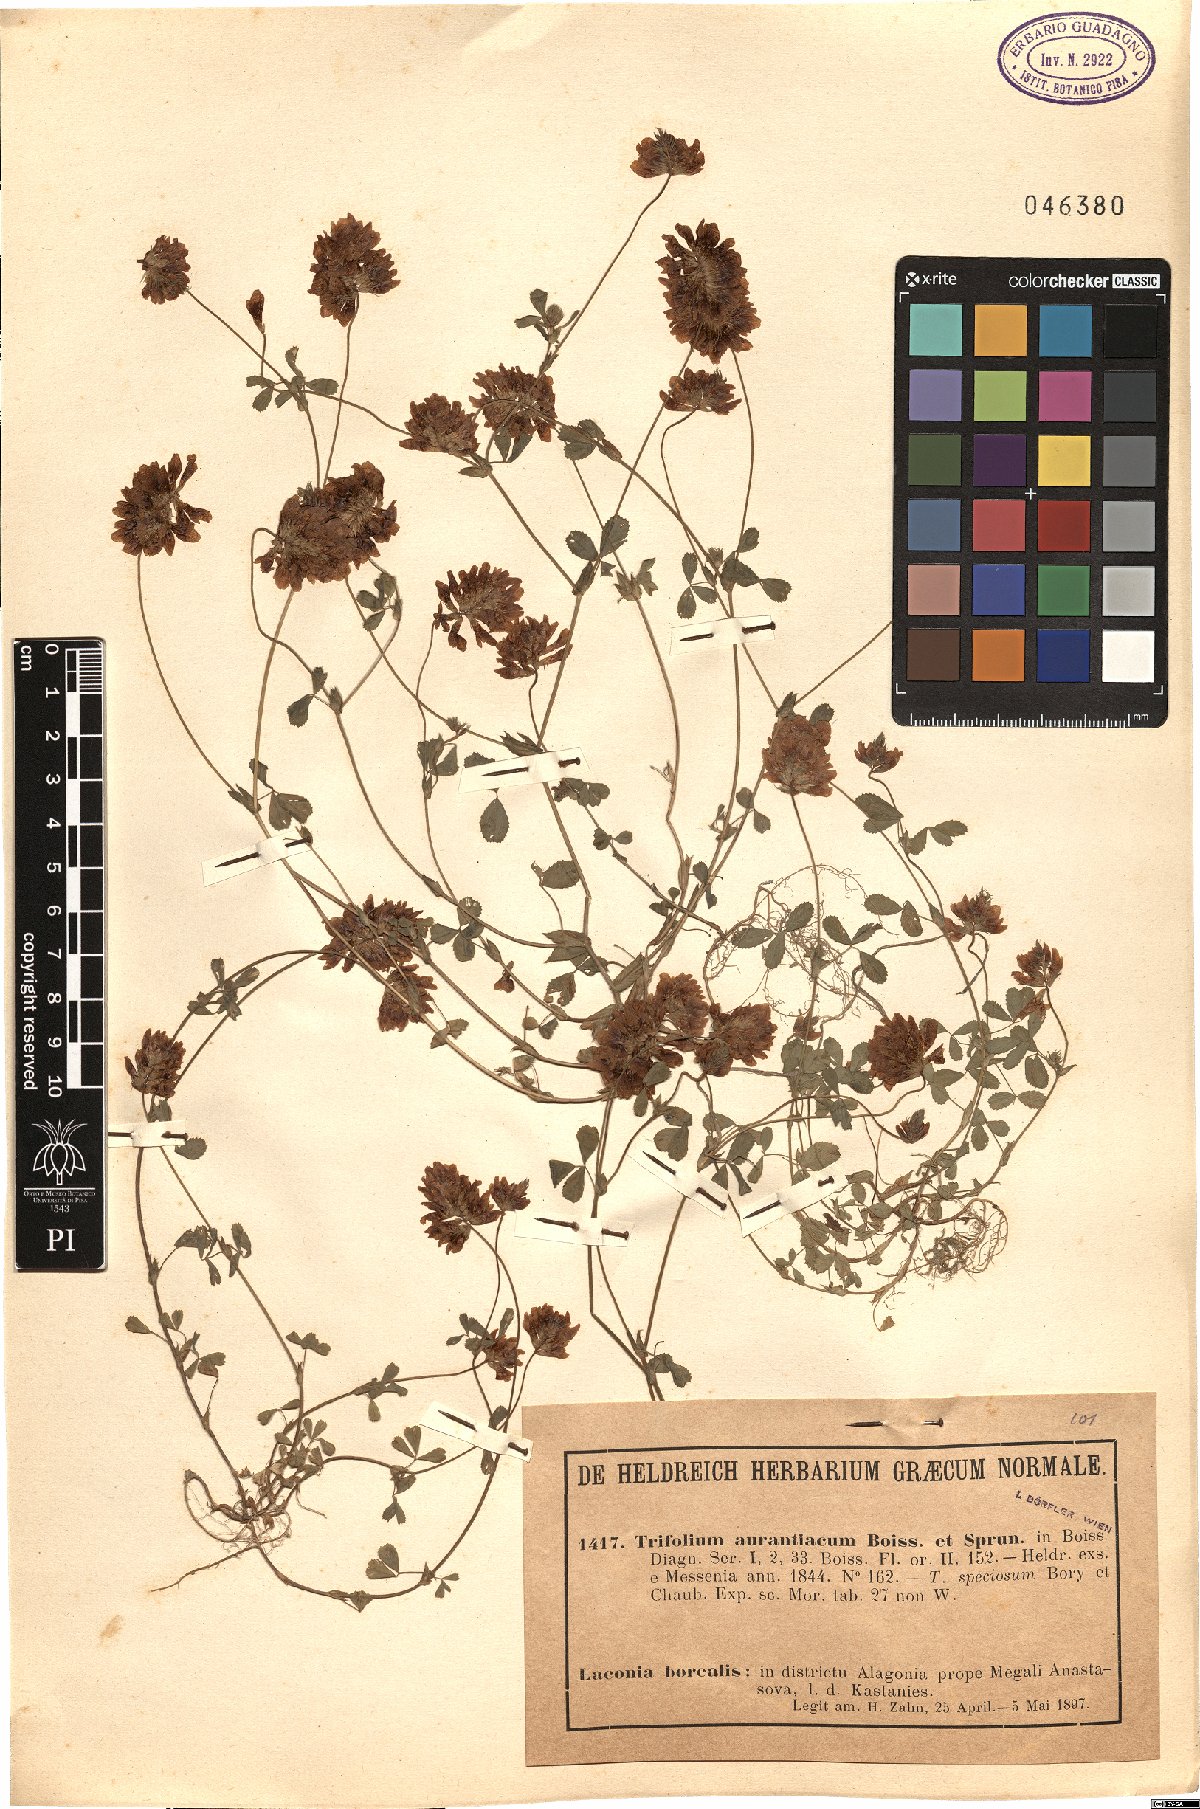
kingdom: Plantae
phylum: Tracheophyta
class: Magnoliopsida
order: Fabales
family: Fabaceae
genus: Trifolium
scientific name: Trifolium aurantiacum
